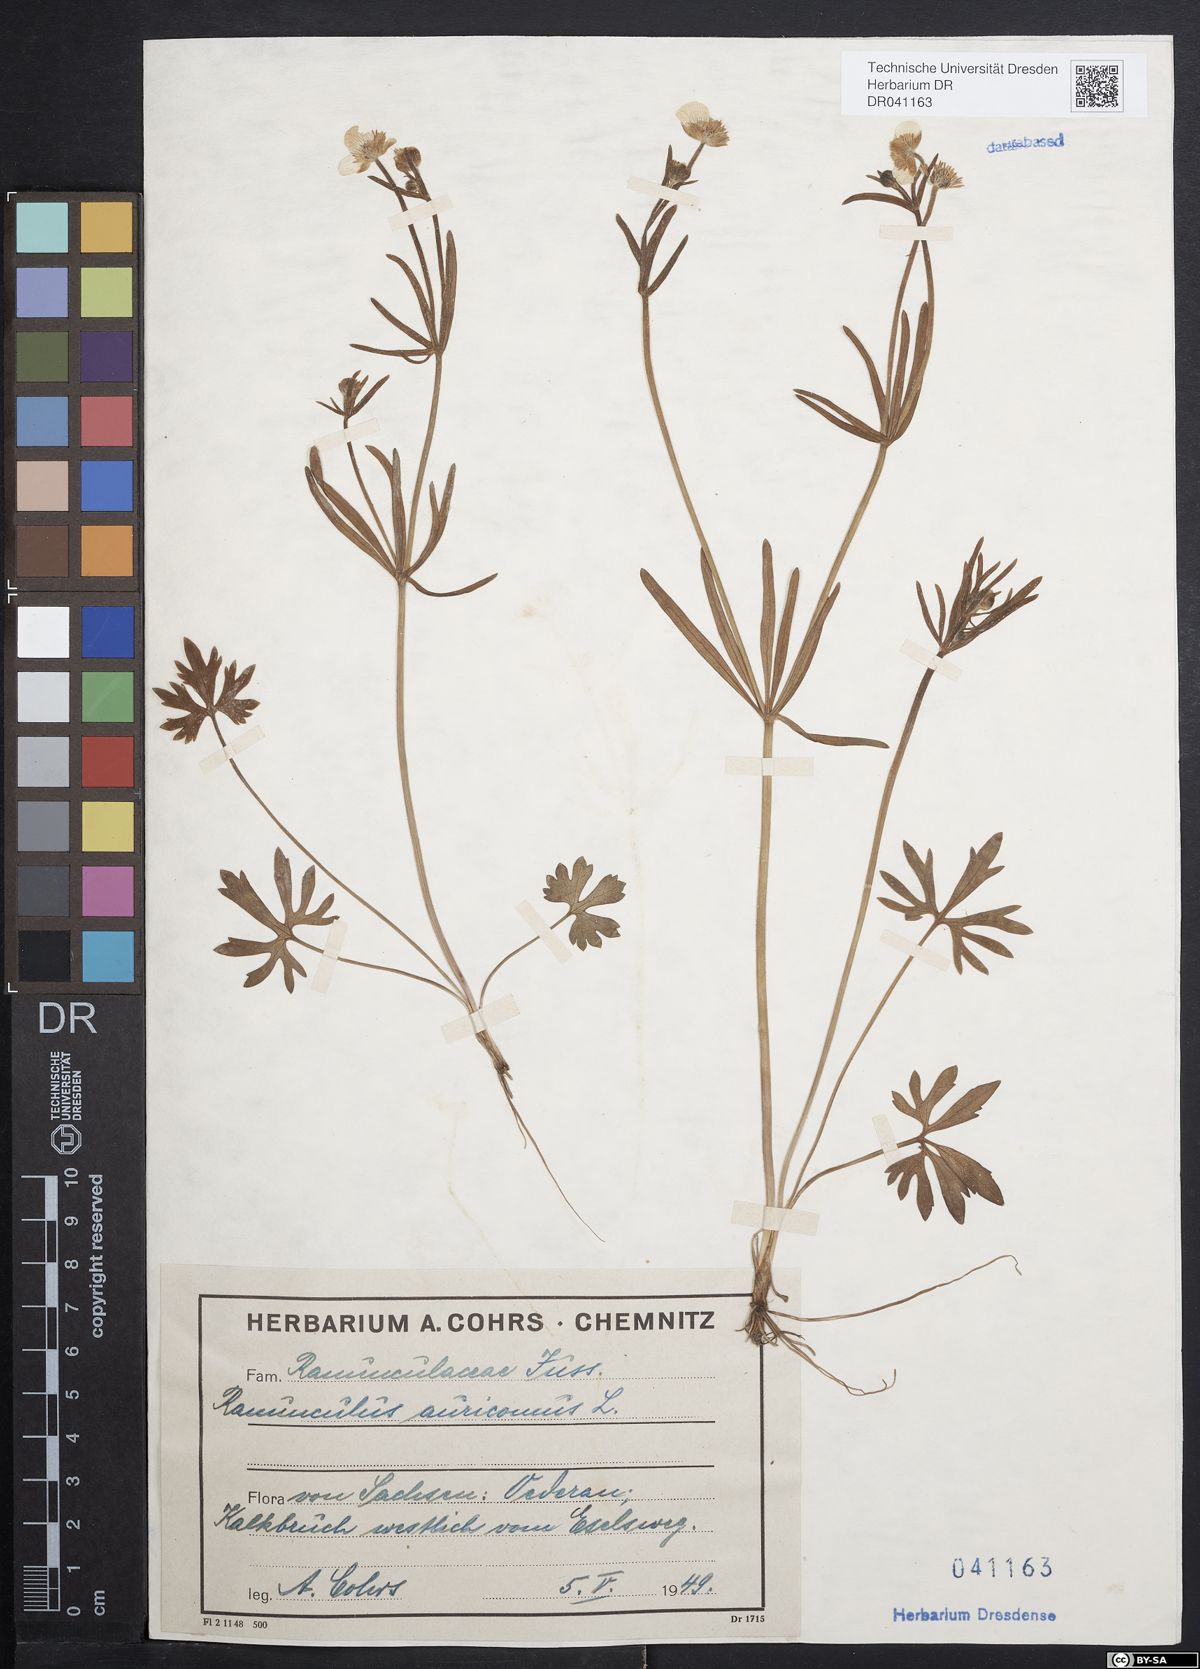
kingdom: Plantae
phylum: Tracheophyta
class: Magnoliopsida
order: Ranunculales
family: Ranunculaceae
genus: Ranunculus
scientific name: Ranunculus connivens
